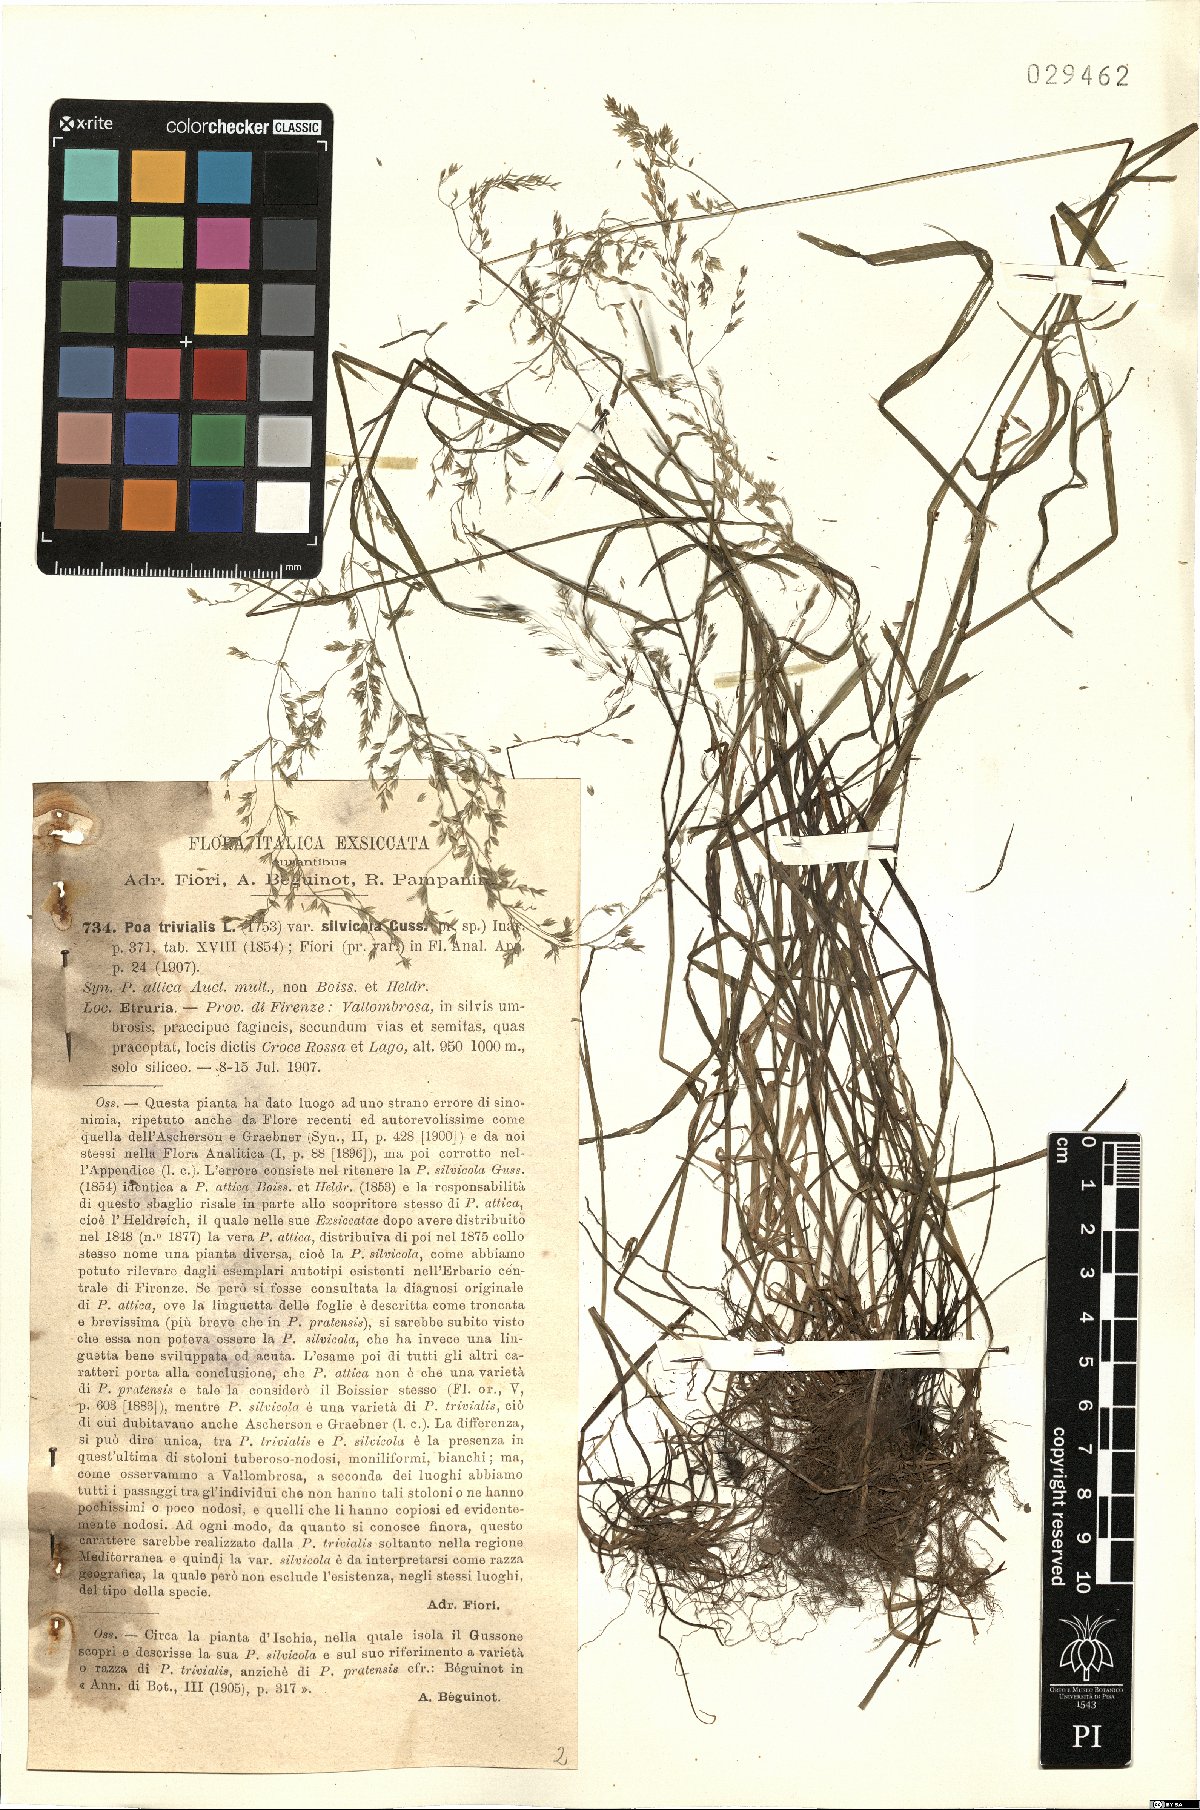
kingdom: Plantae
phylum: Tracheophyta
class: Liliopsida
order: Poales
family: Poaceae
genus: Poa
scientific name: Poa trivialis
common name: Rough bluegrass
